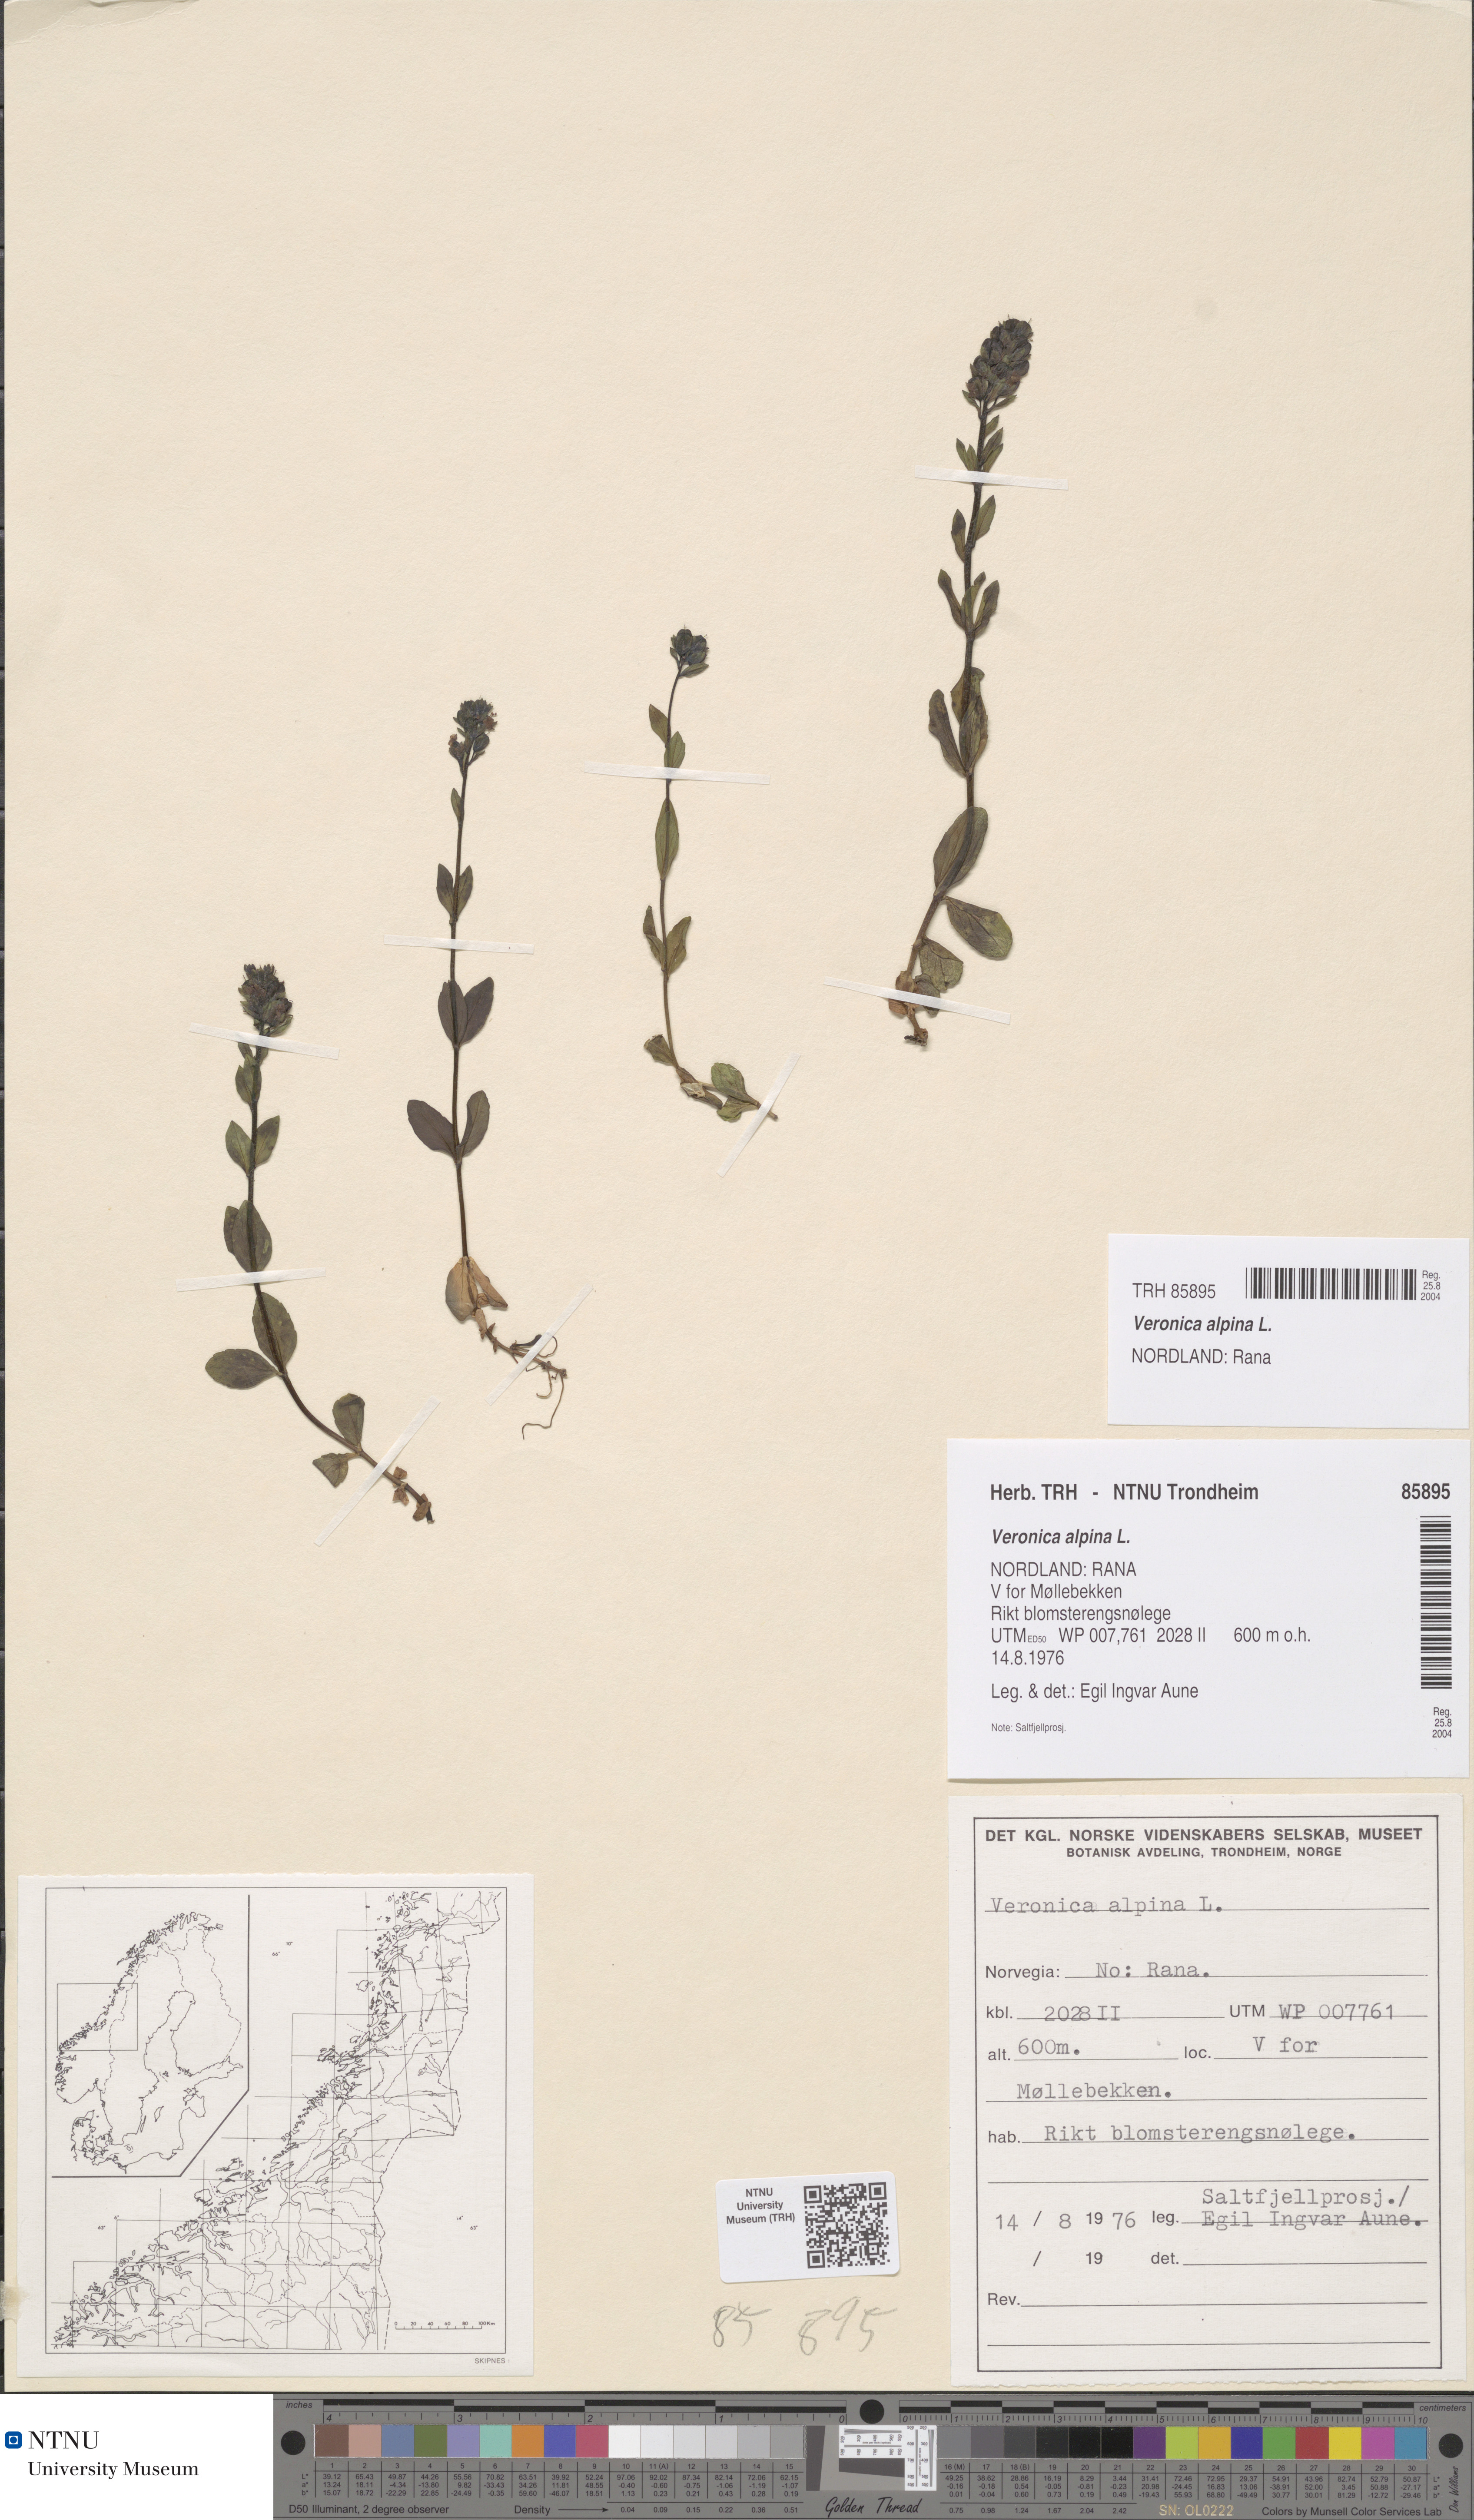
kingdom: Plantae
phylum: Tracheophyta
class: Magnoliopsida
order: Lamiales
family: Plantaginaceae
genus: Veronica
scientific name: Veronica alpina
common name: Alpine speedwell
